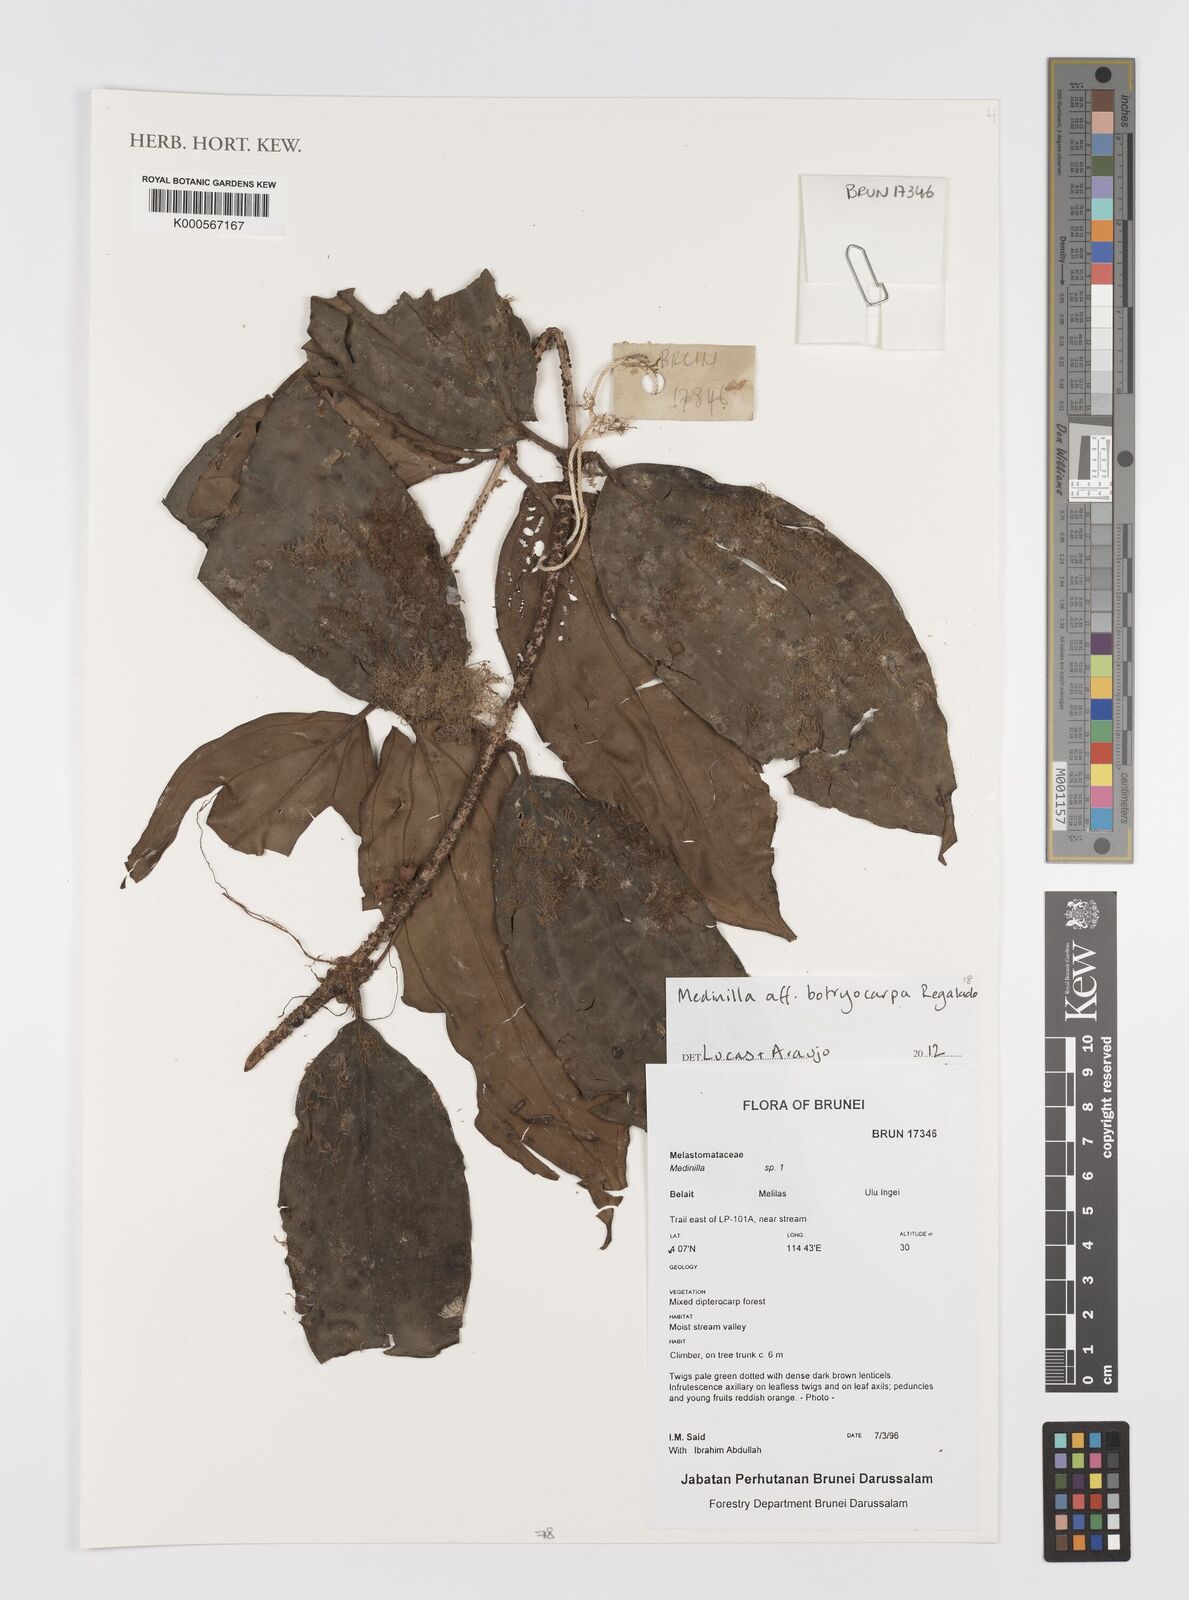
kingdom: Plantae
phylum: Tracheophyta
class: Magnoliopsida
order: Myrtales
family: Melastomataceae
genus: Medinilla
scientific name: Medinilla botryocarpa
